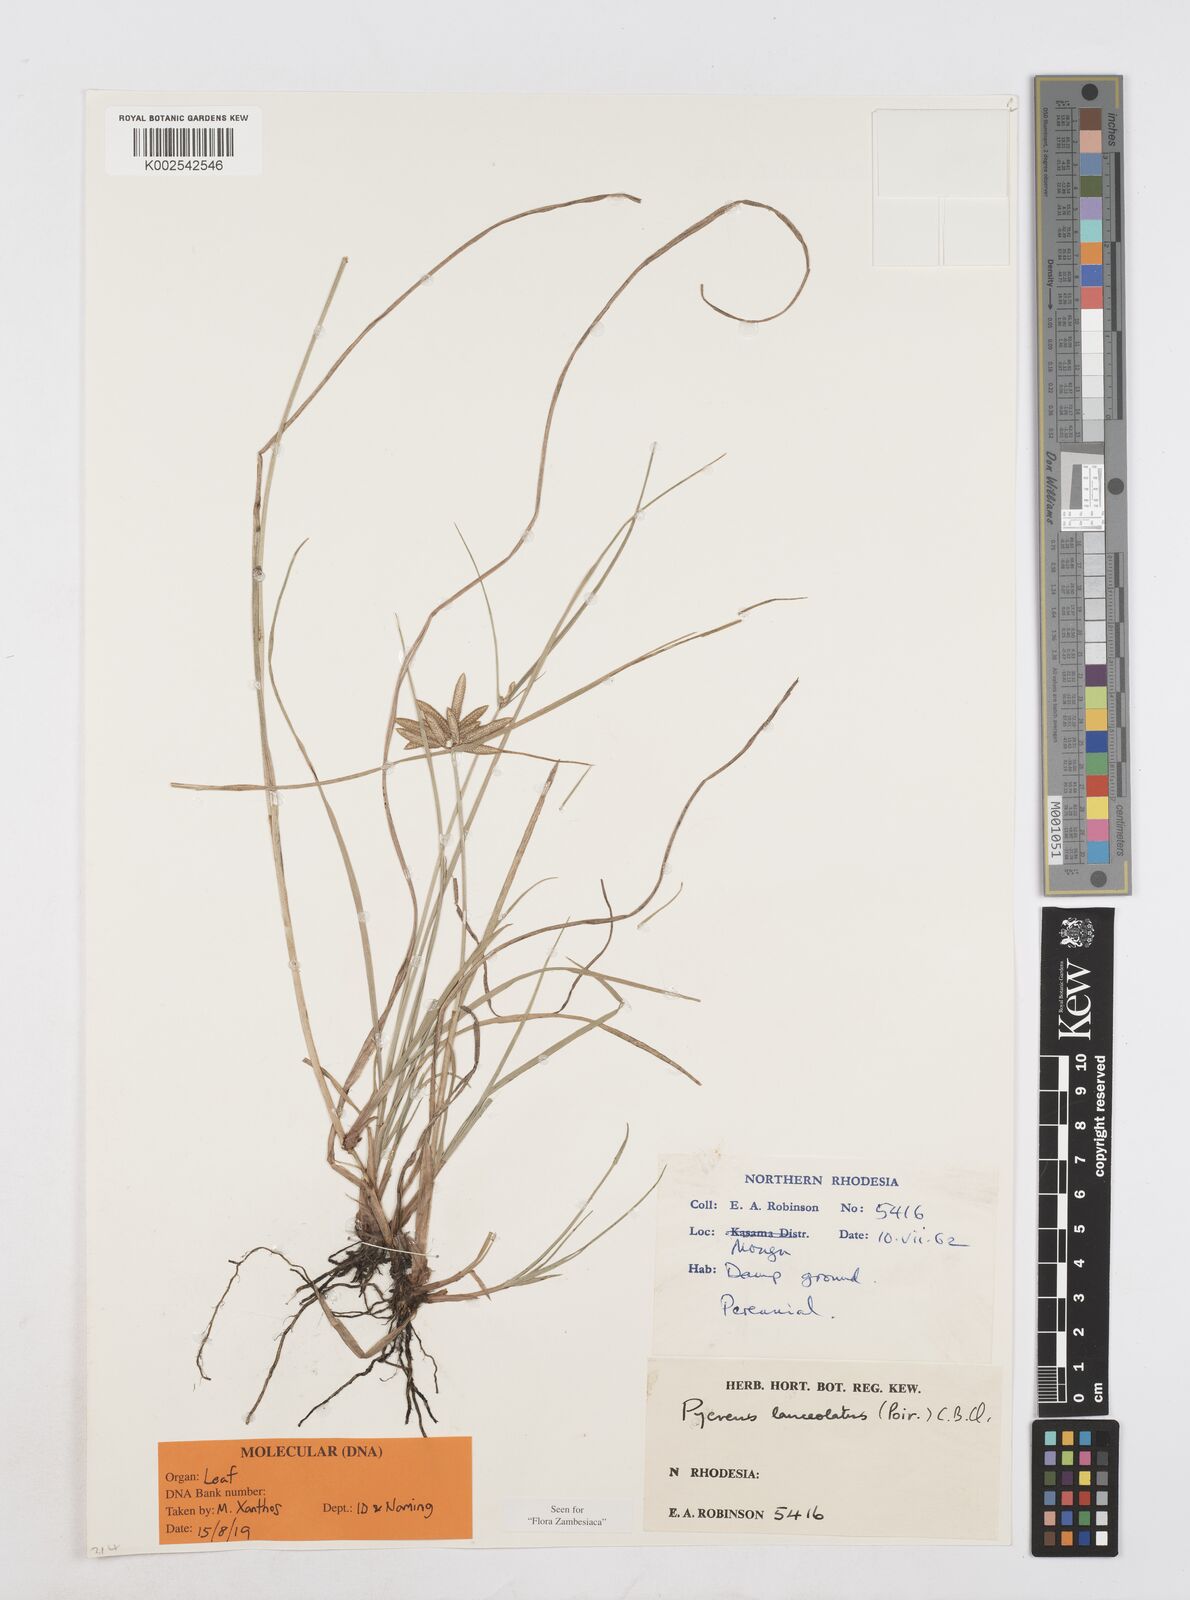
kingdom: Plantae
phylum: Tracheophyta
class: Liliopsida
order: Poales
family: Cyperaceae
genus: Cyperus
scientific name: Cyperus
